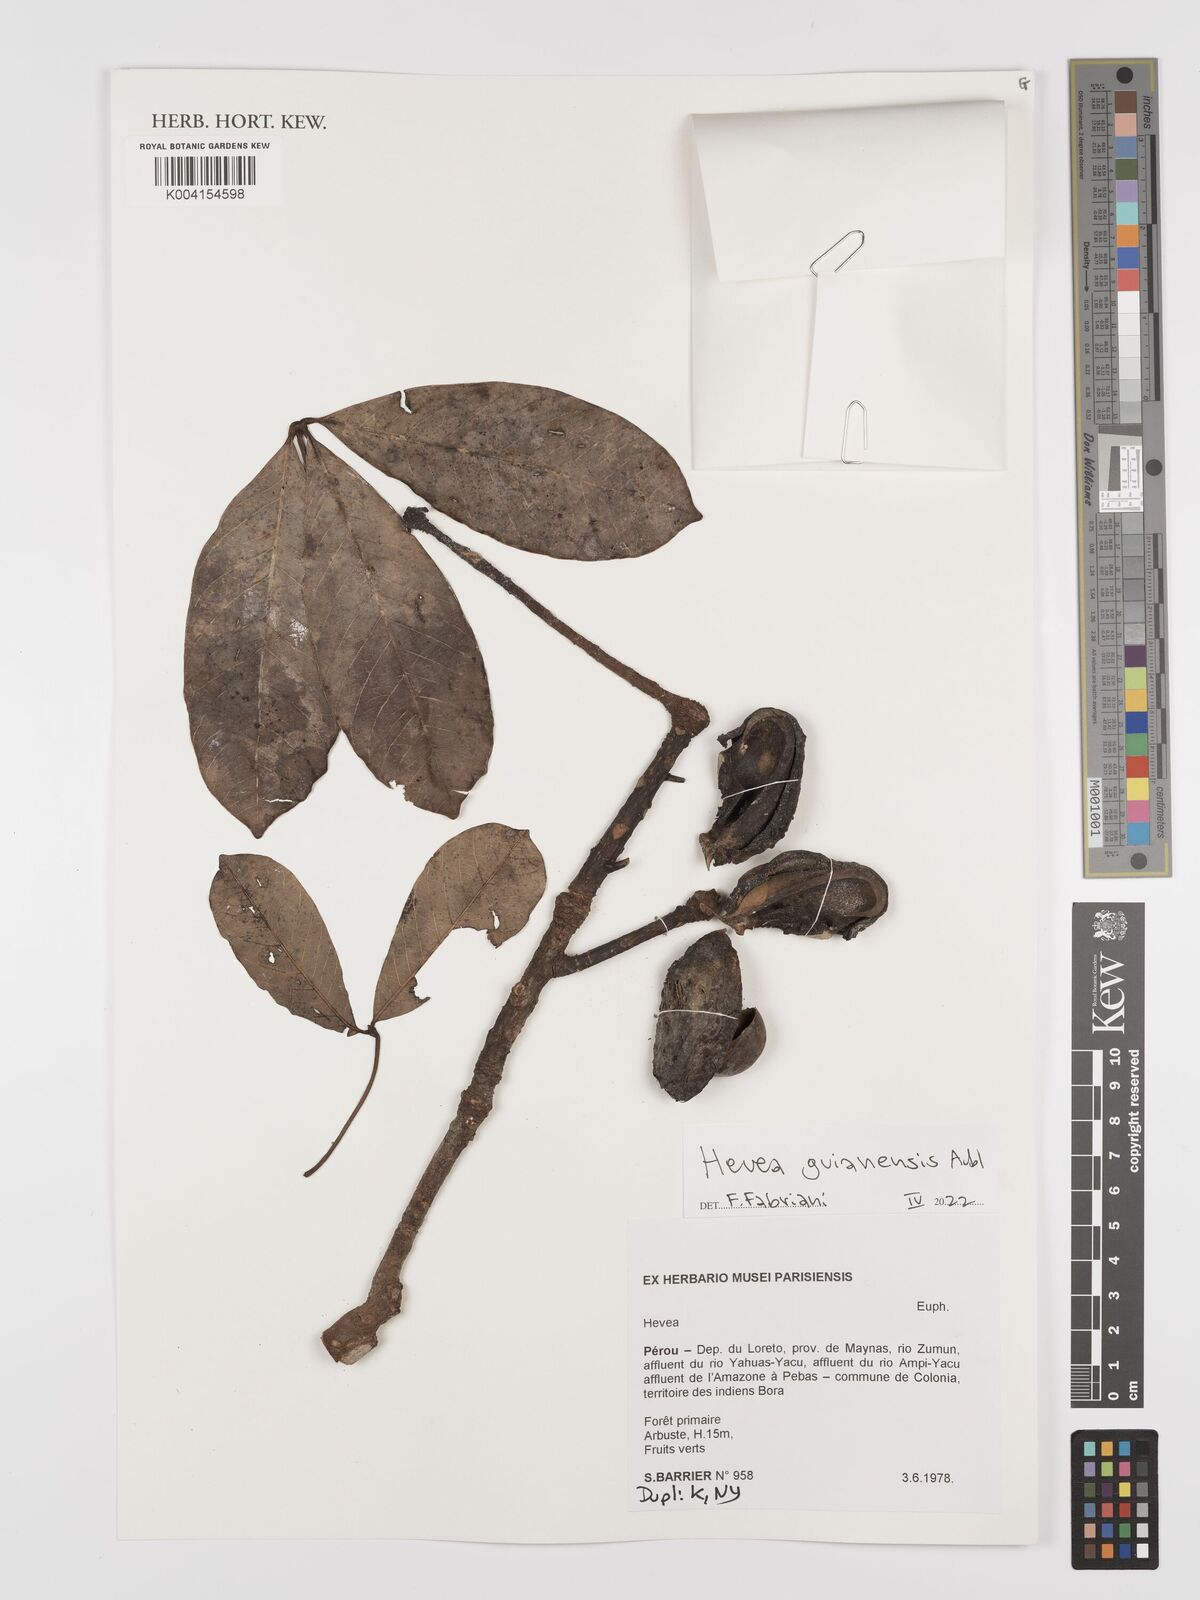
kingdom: Plantae
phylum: Tracheophyta
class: Magnoliopsida
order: Malpighiales
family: Euphorbiaceae
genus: Hevea
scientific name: Hevea guianensis
